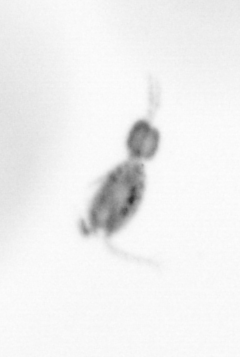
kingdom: Animalia
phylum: Arthropoda
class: Copepoda
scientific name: Copepoda
